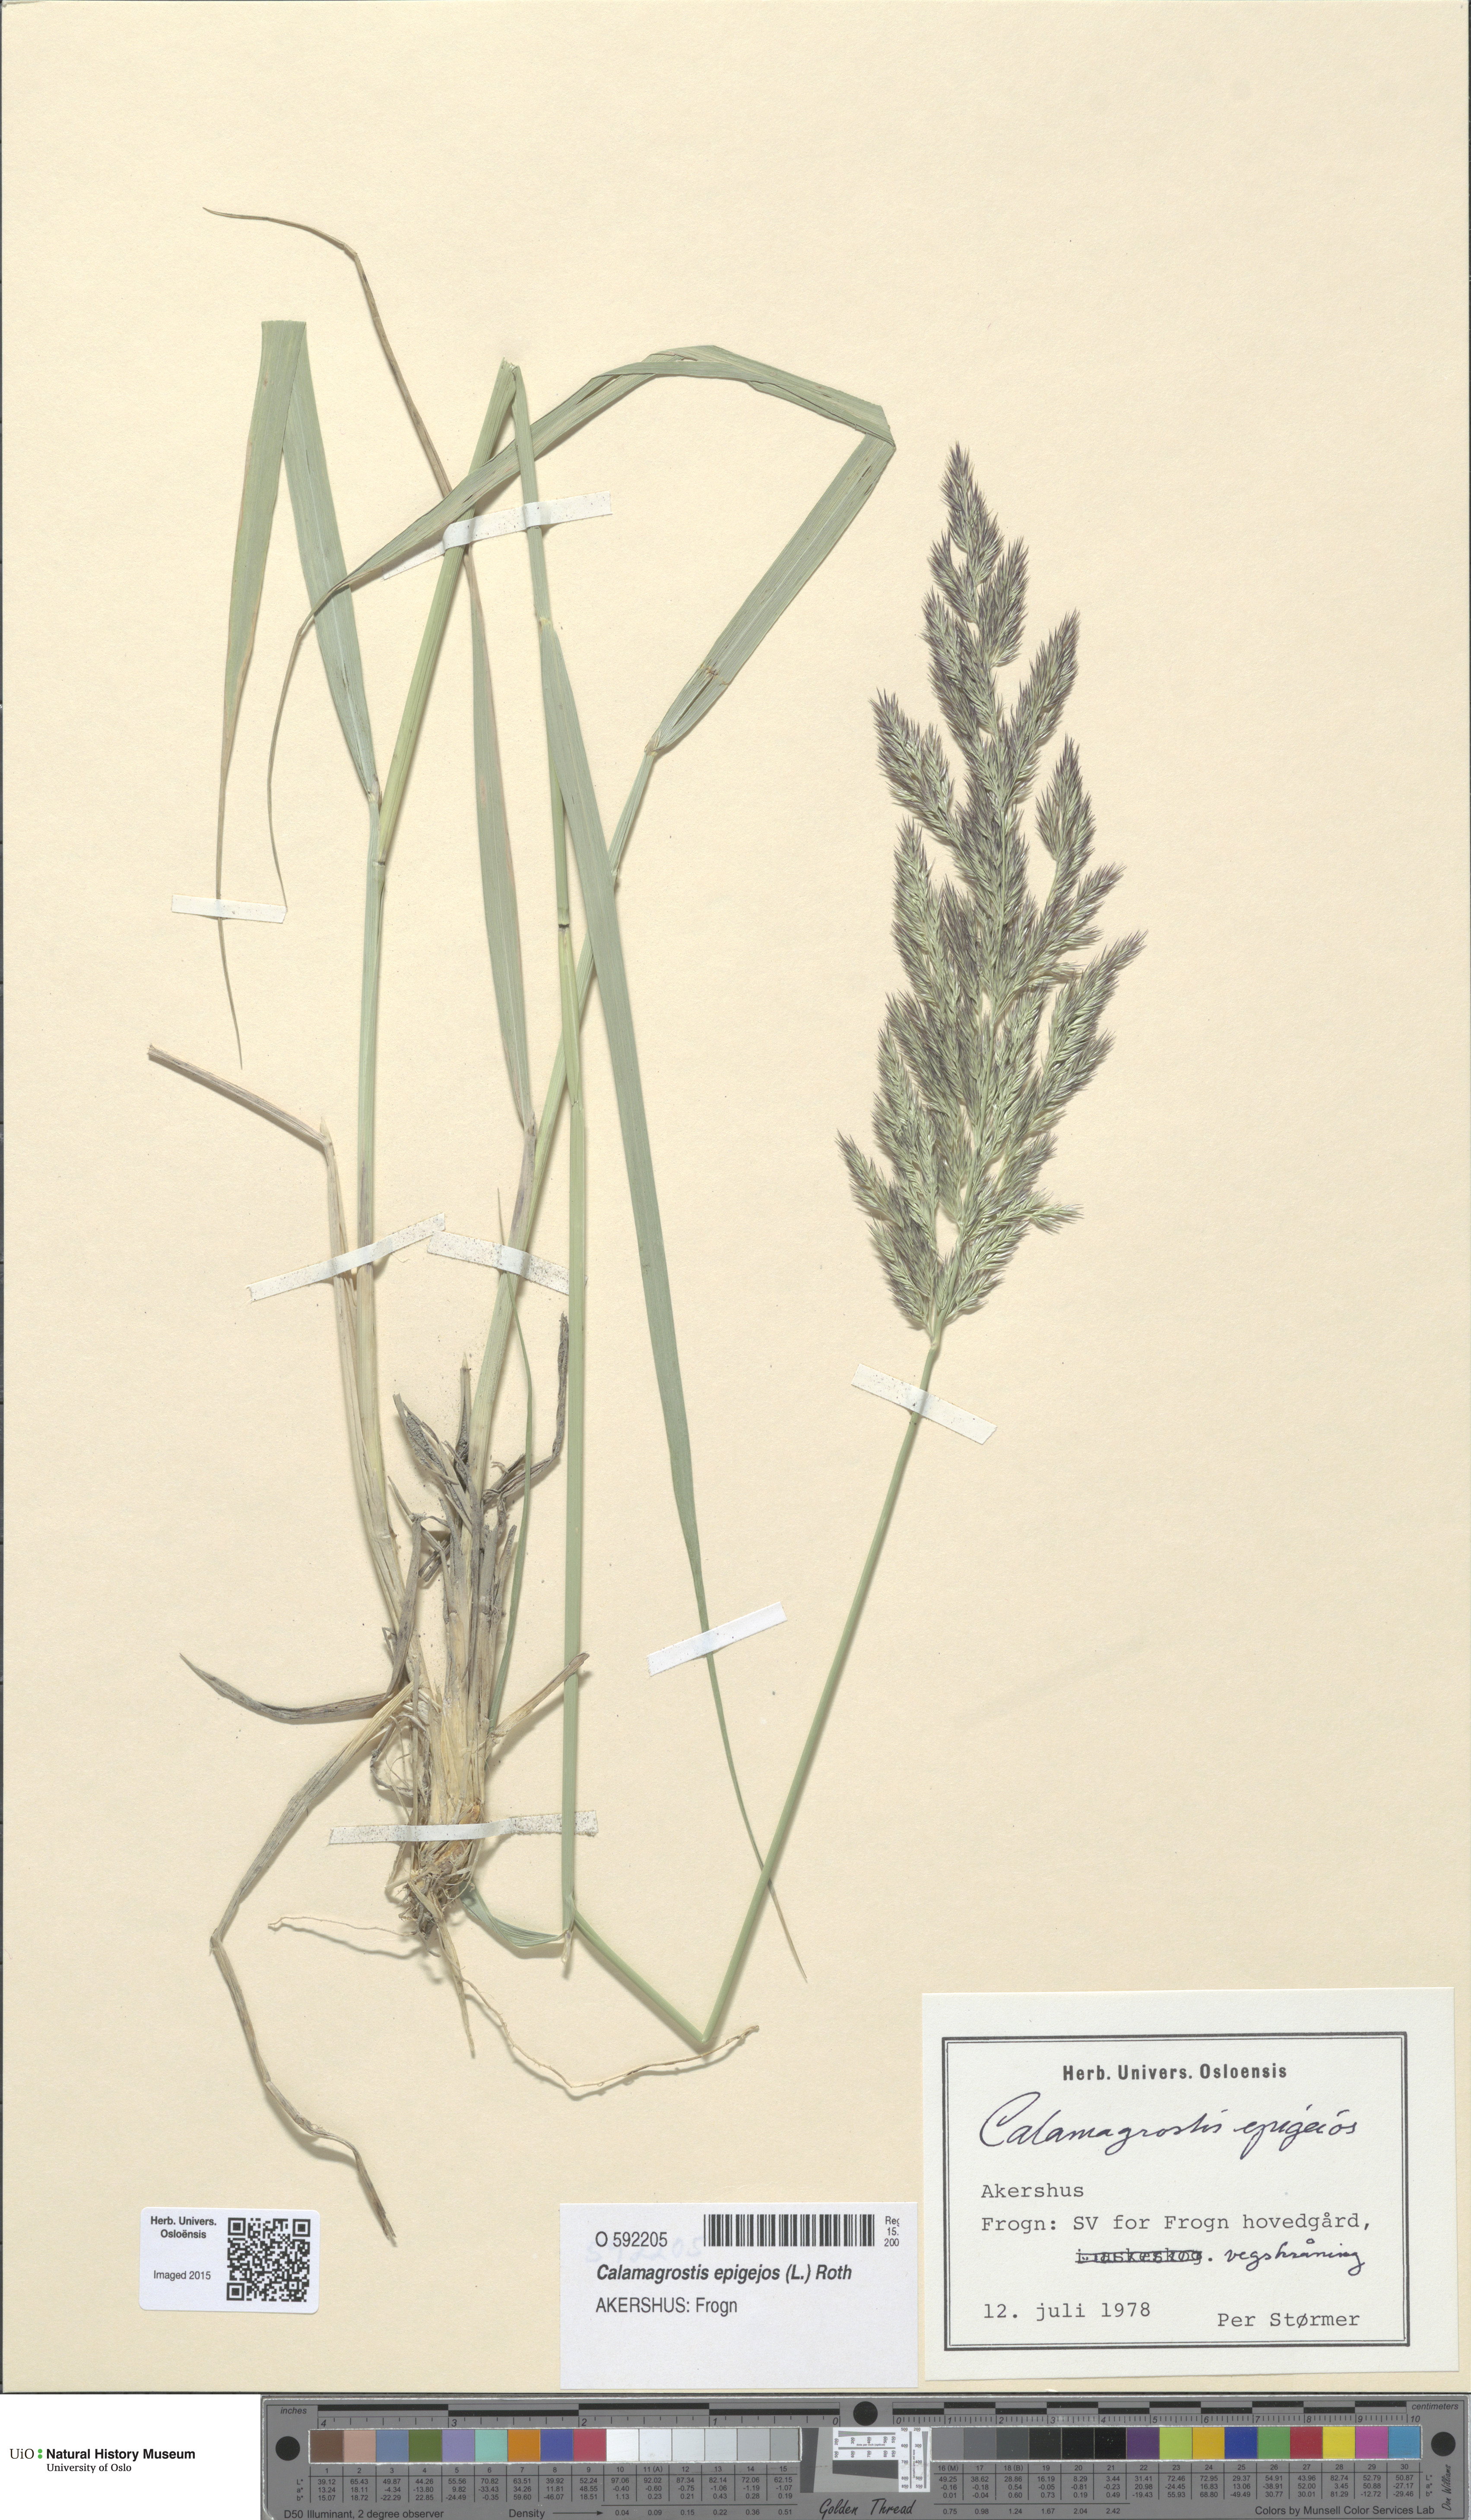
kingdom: Plantae
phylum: Tracheophyta
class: Liliopsida
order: Poales
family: Poaceae
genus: Calamagrostis
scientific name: Calamagrostis epigejos
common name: Wood small-reed
